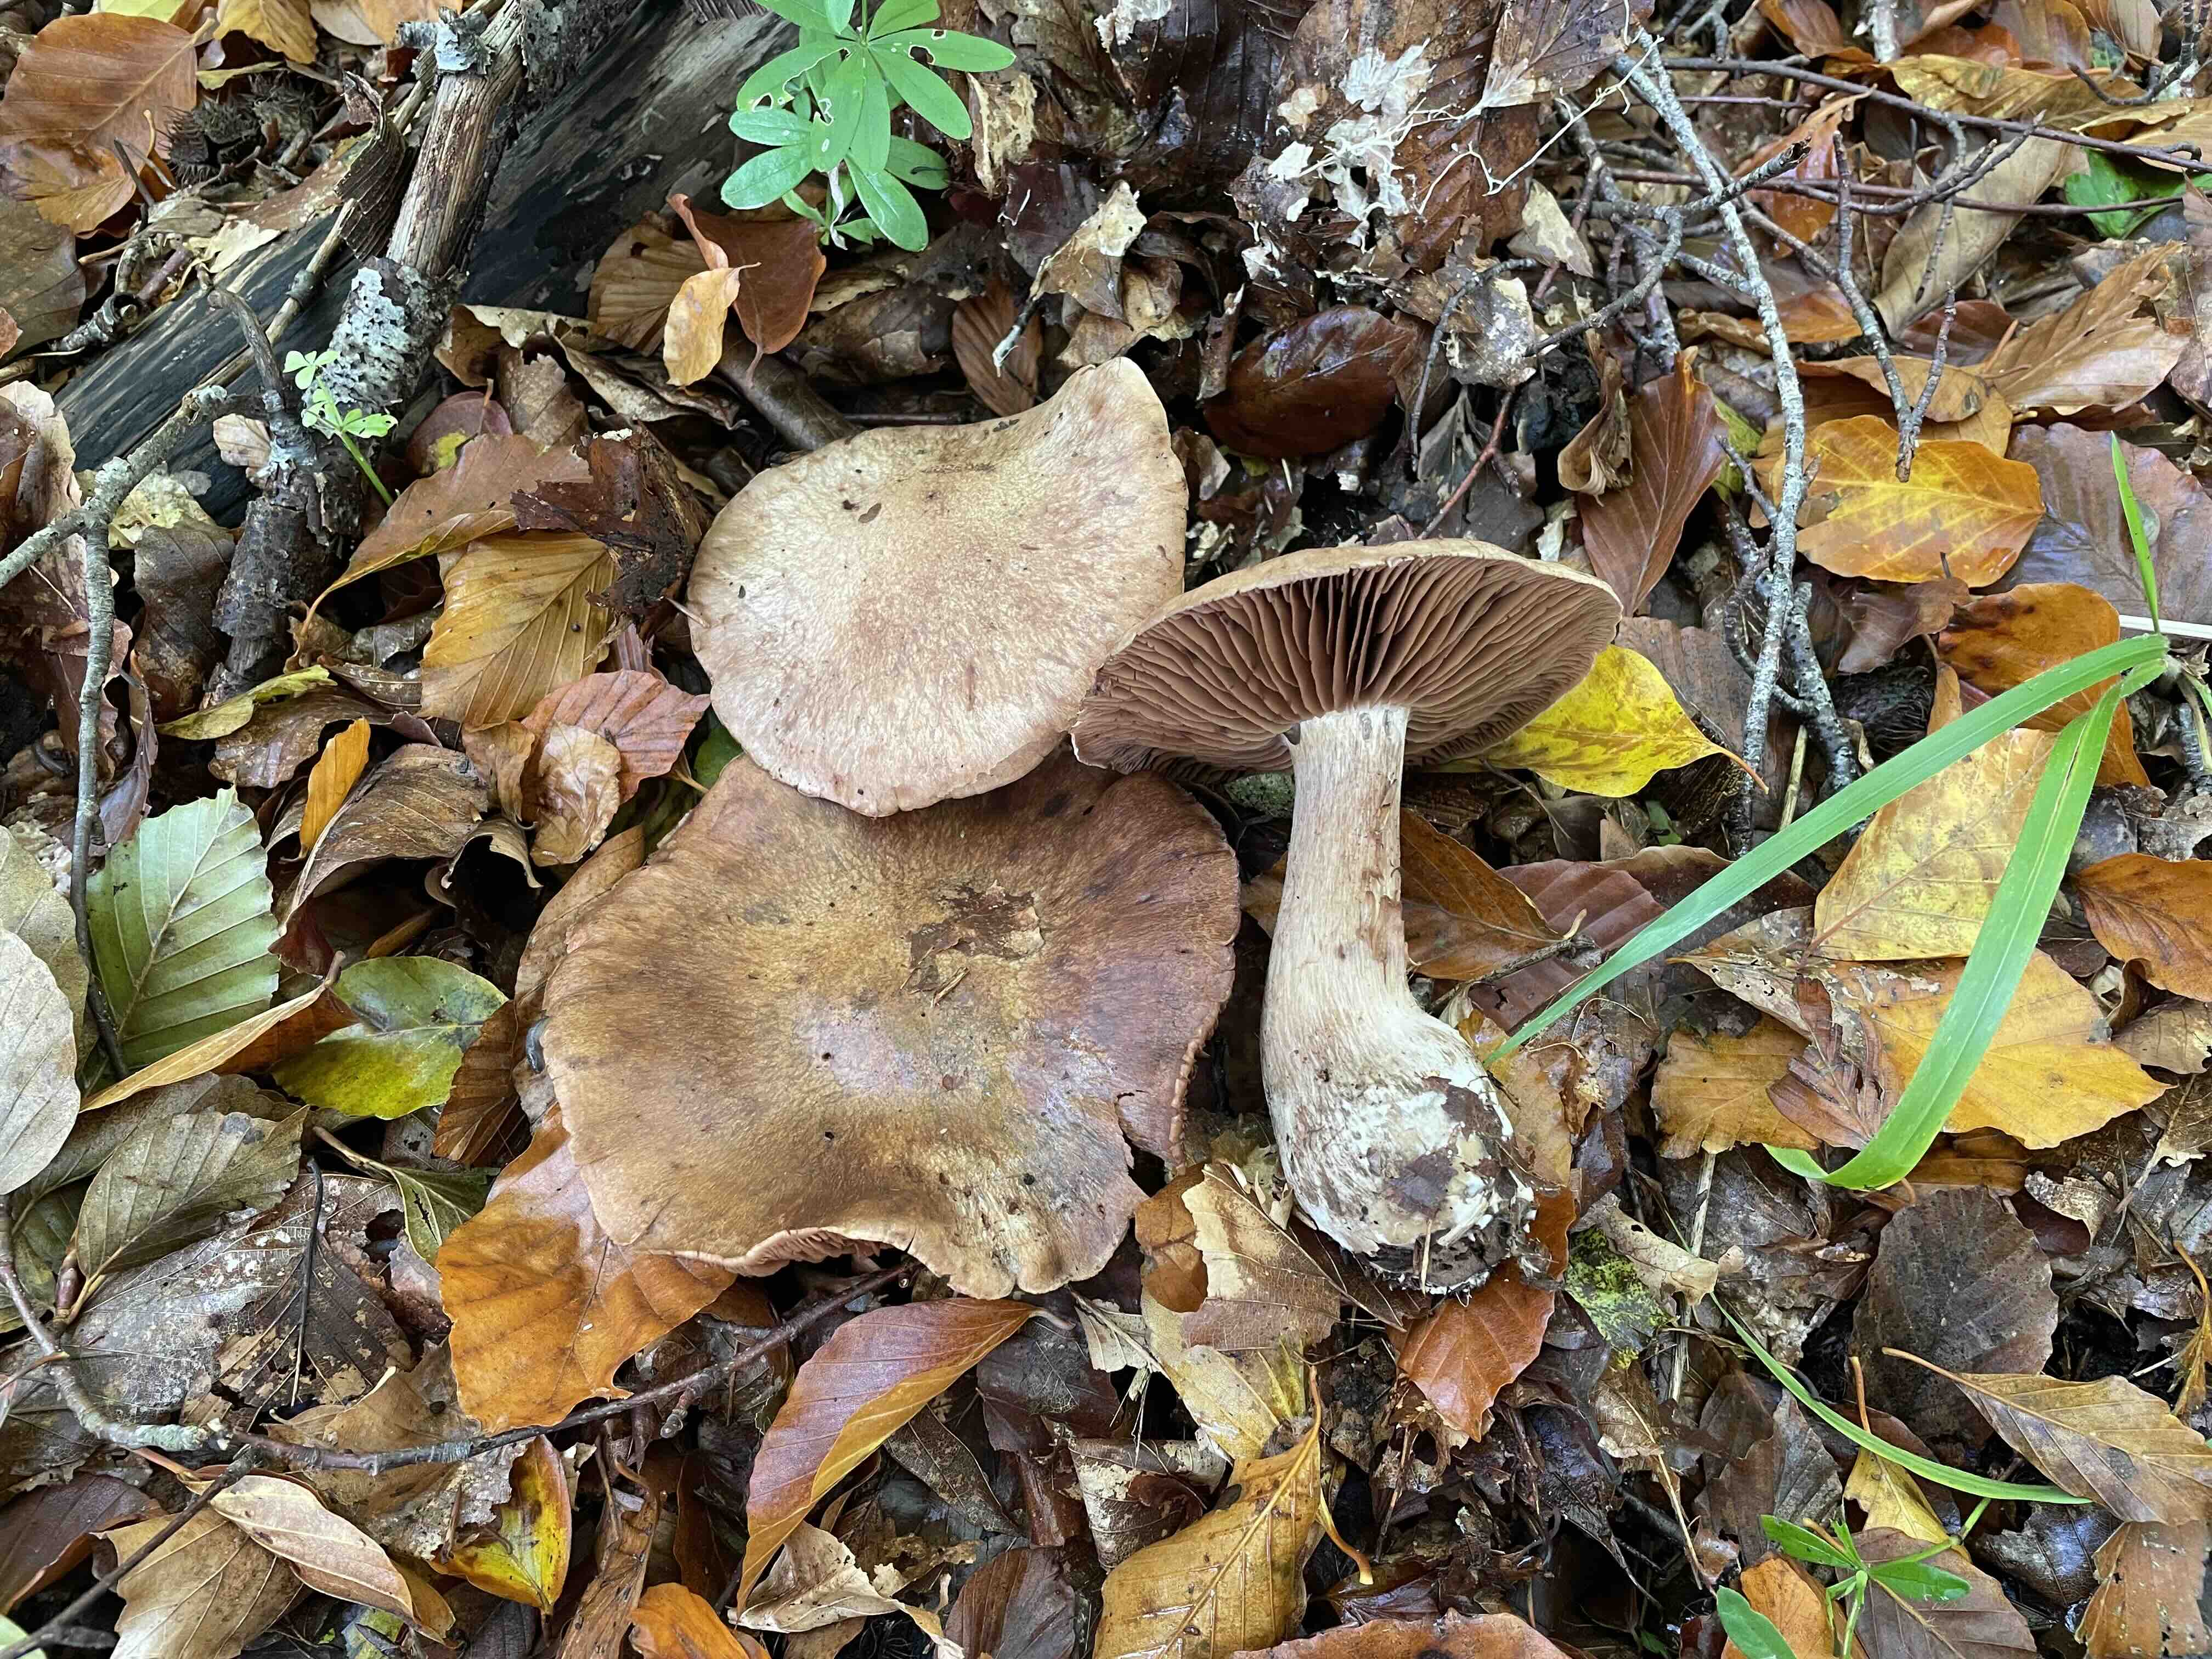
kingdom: Fungi
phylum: Basidiomycota
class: Agaricomycetes
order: Agaricales
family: Cortinariaceae
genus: Cortinarius
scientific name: Cortinarius
